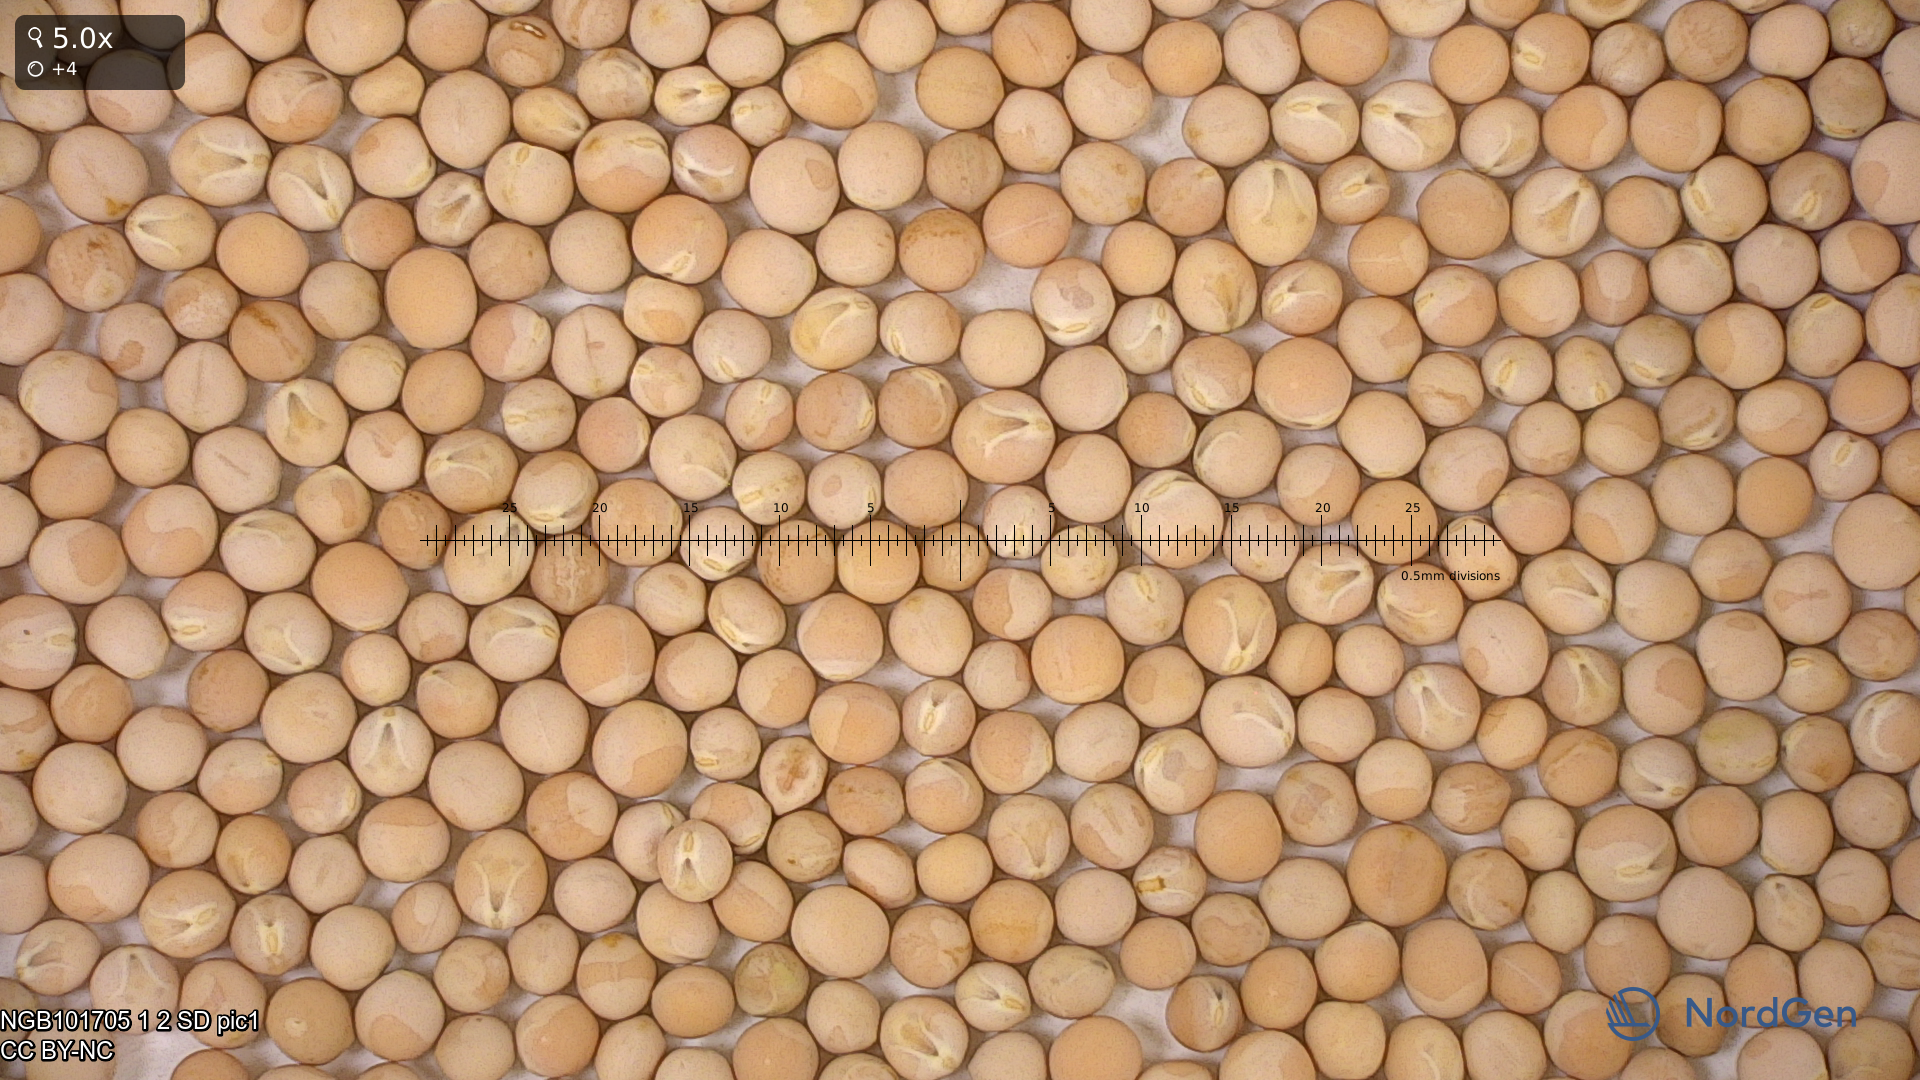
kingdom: Plantae
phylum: Tracheophyta
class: Magnoliopsida
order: Fabales
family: Fabaceae
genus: Lathyrus
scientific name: Lathyrus oleraceus
